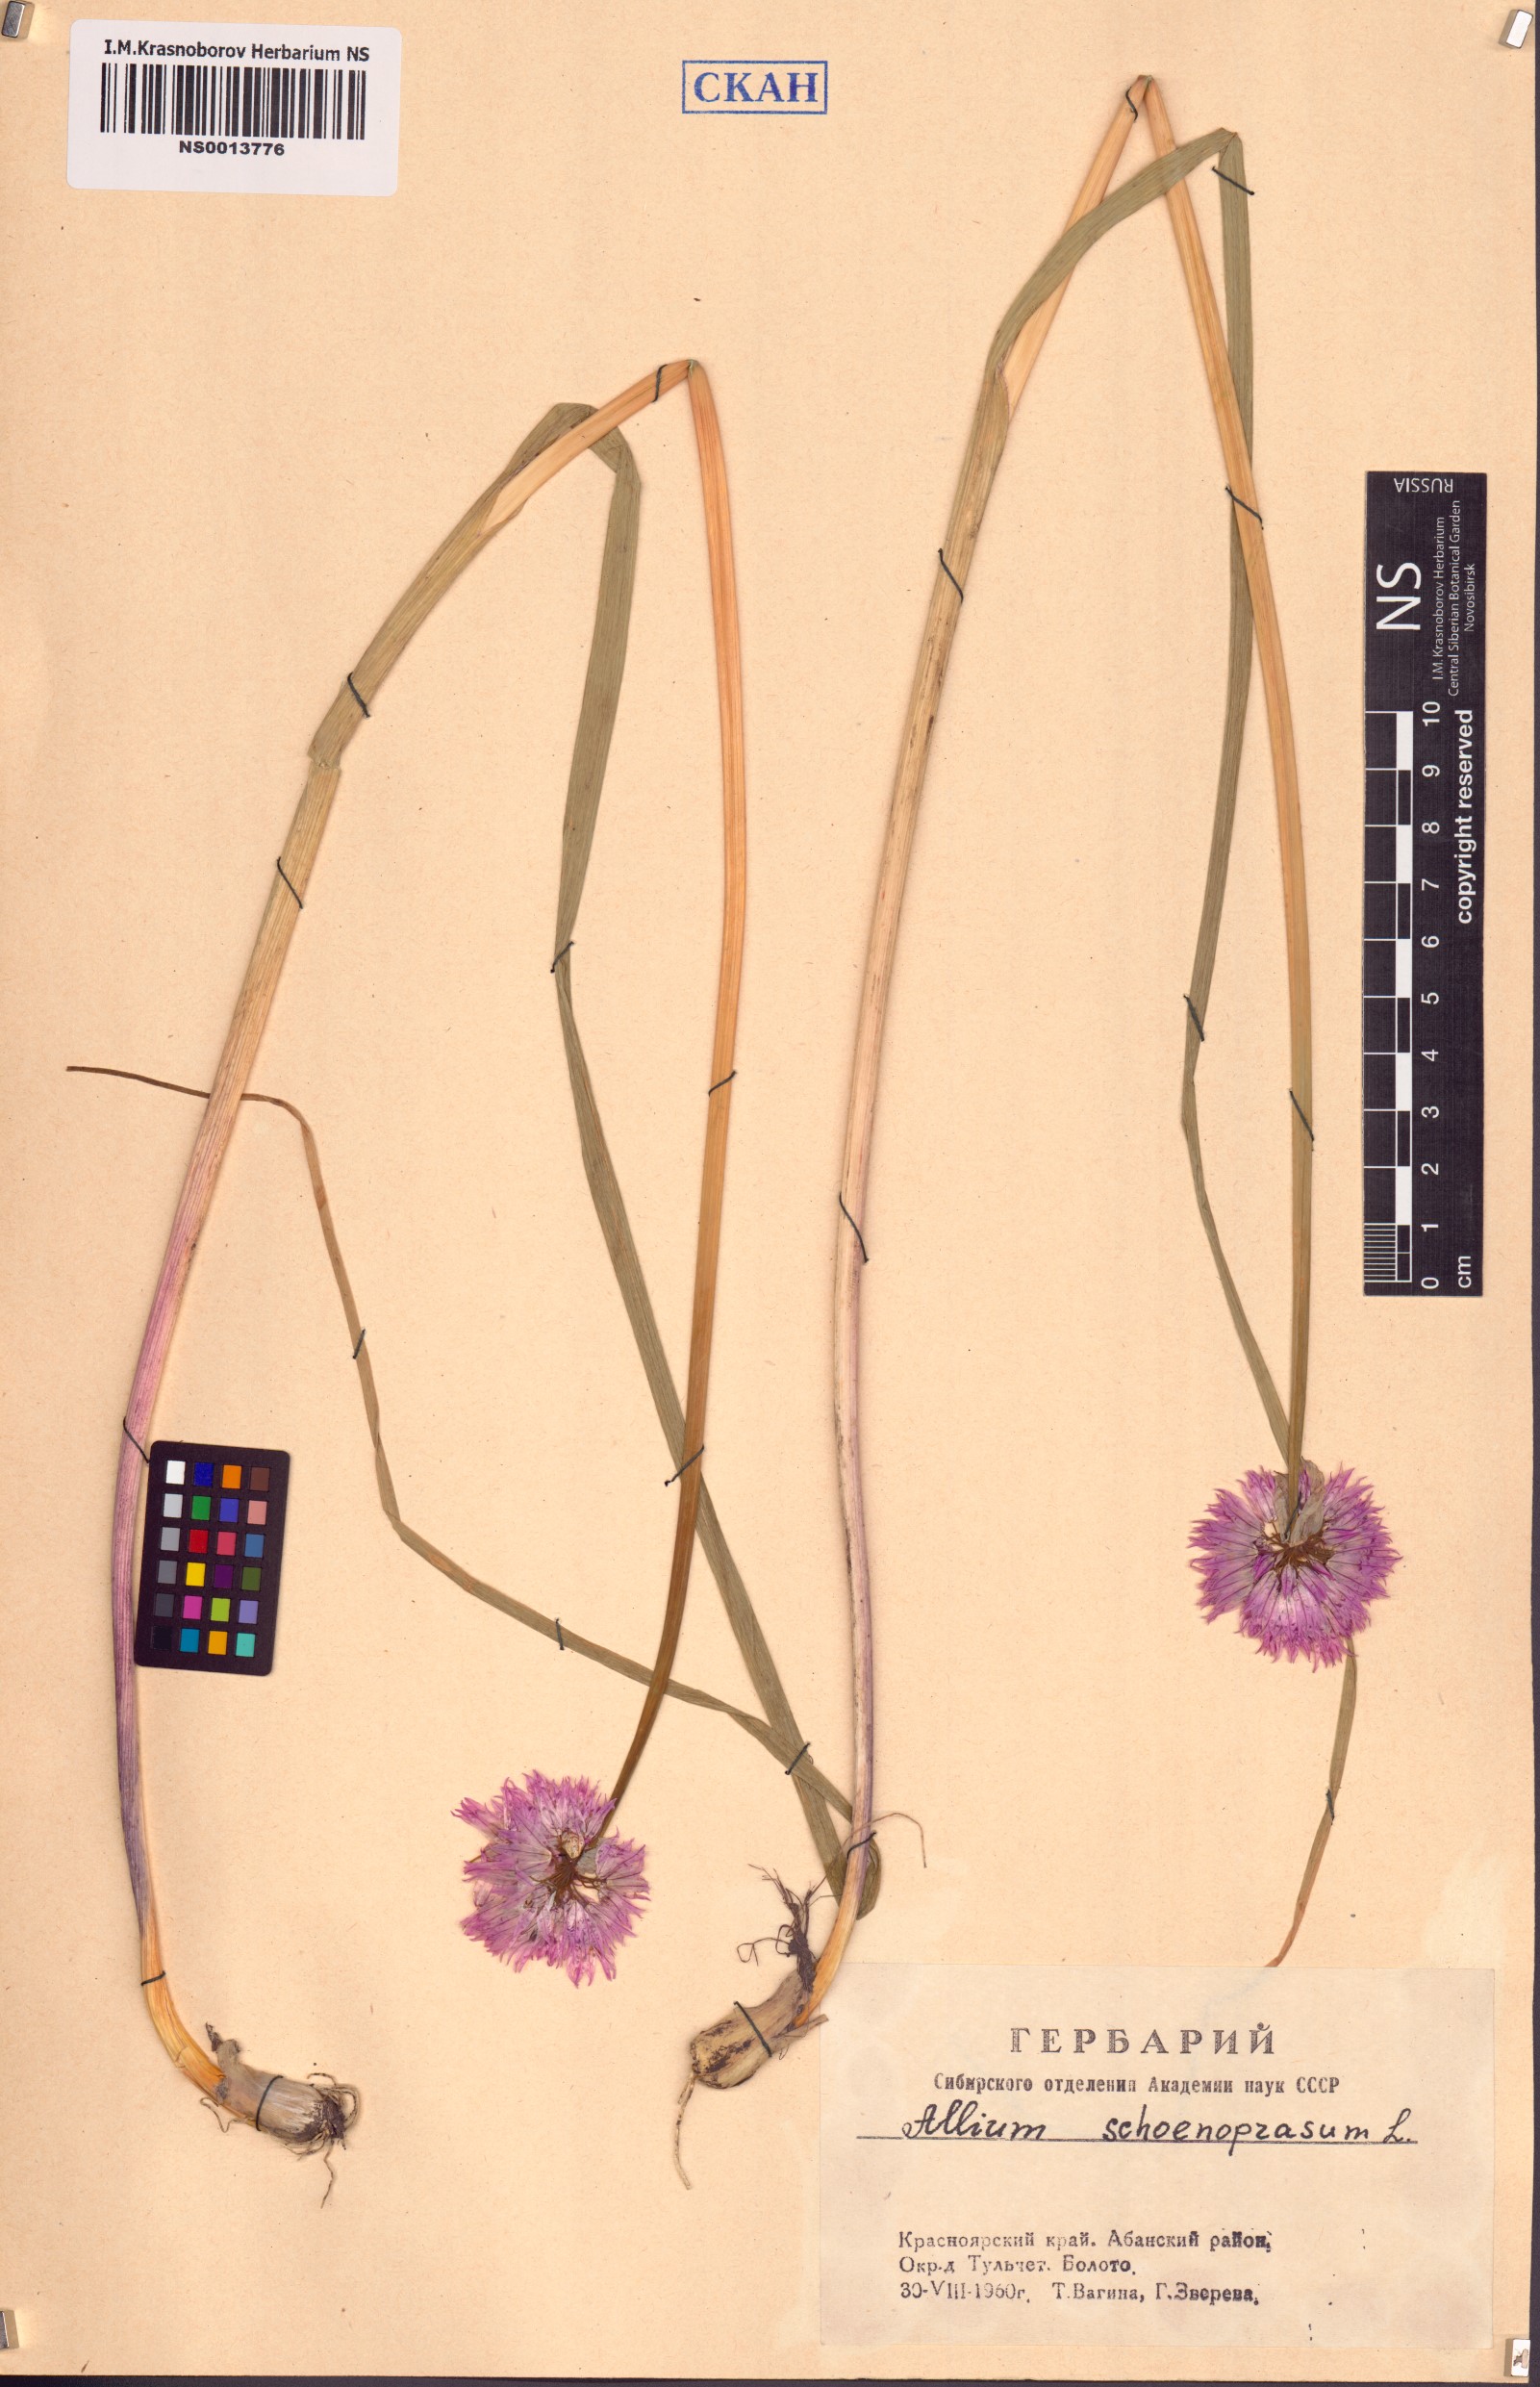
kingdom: Plantae
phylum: Tracheophyta
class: Liliopsida
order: Asparagales
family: Amaryllidaceae
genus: Allium
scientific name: Allium schoenoprasum
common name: Chives
